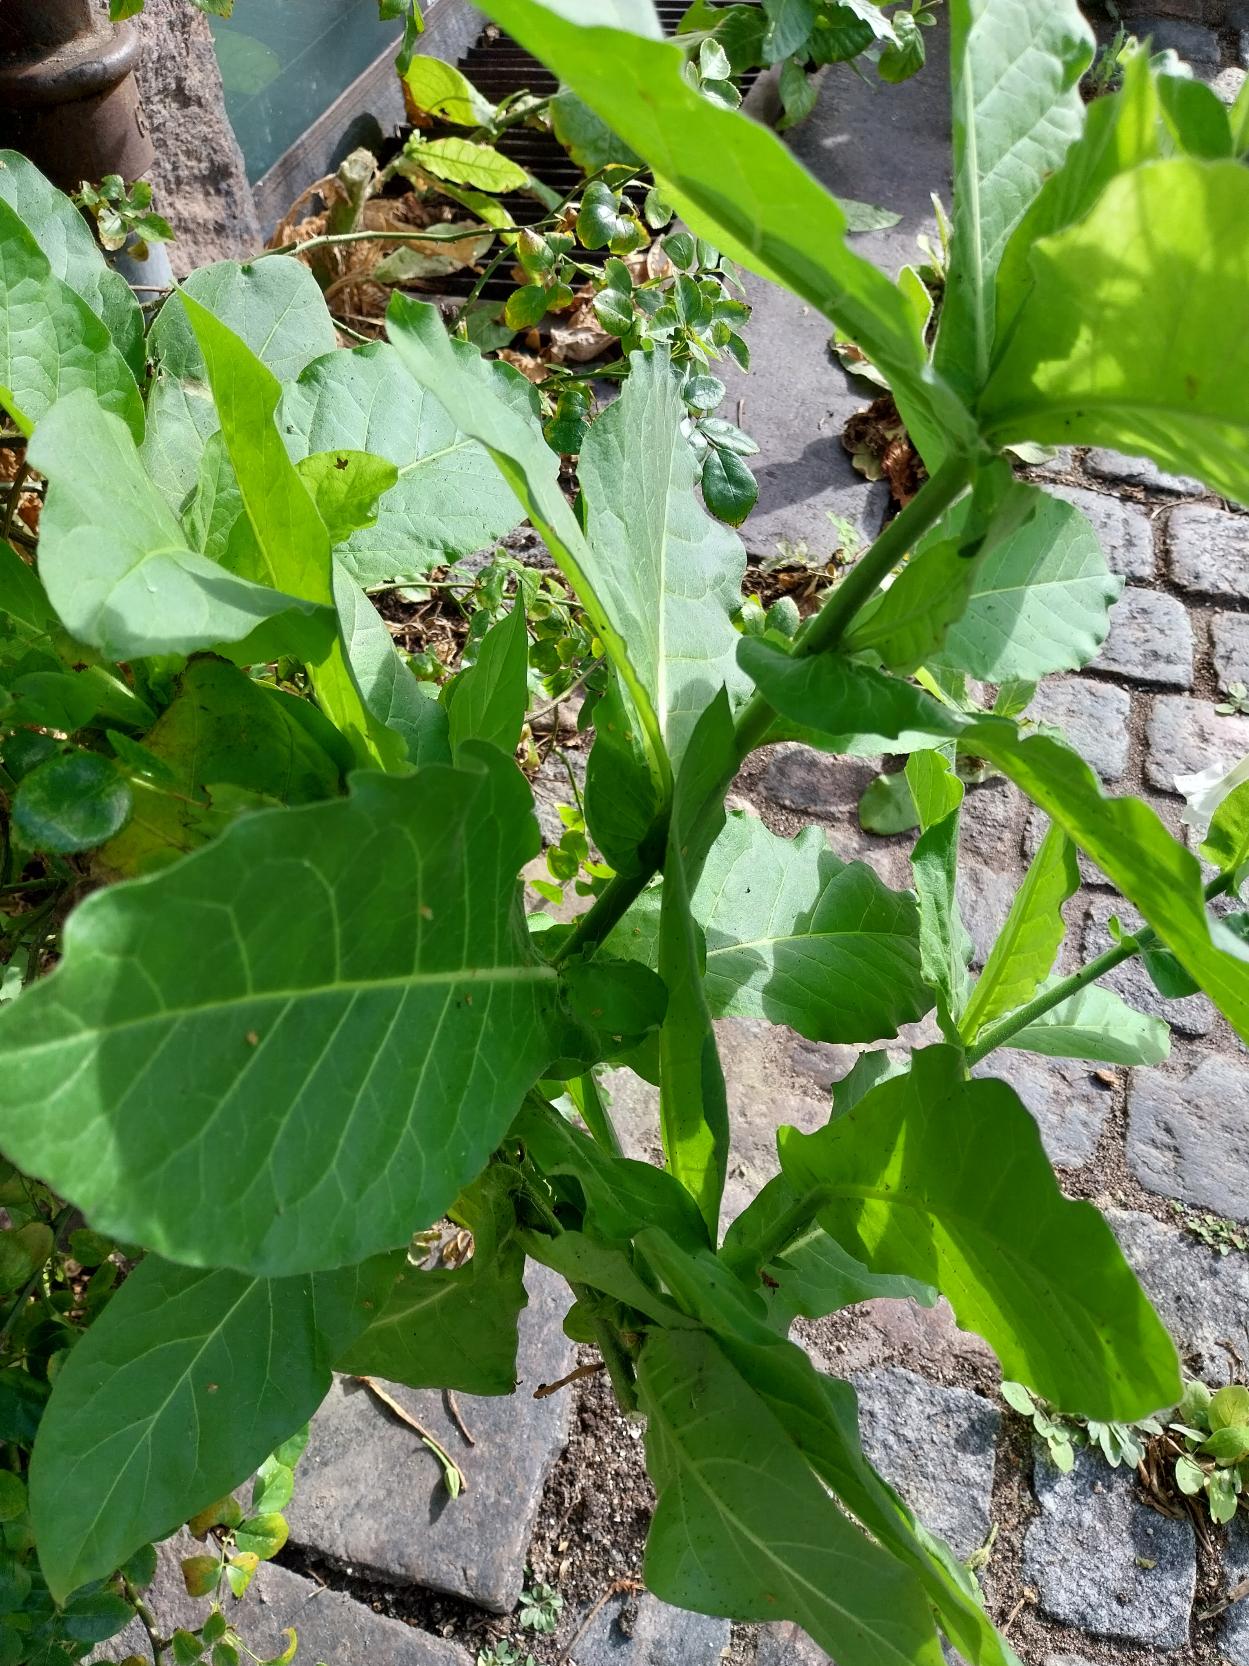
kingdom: Plantae
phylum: Tracheophyta
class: Magnoliopsida
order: Solanales
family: Solanaceae
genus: Nicotiana
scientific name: Nicotiana sylvestris
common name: Narcis-tobak
